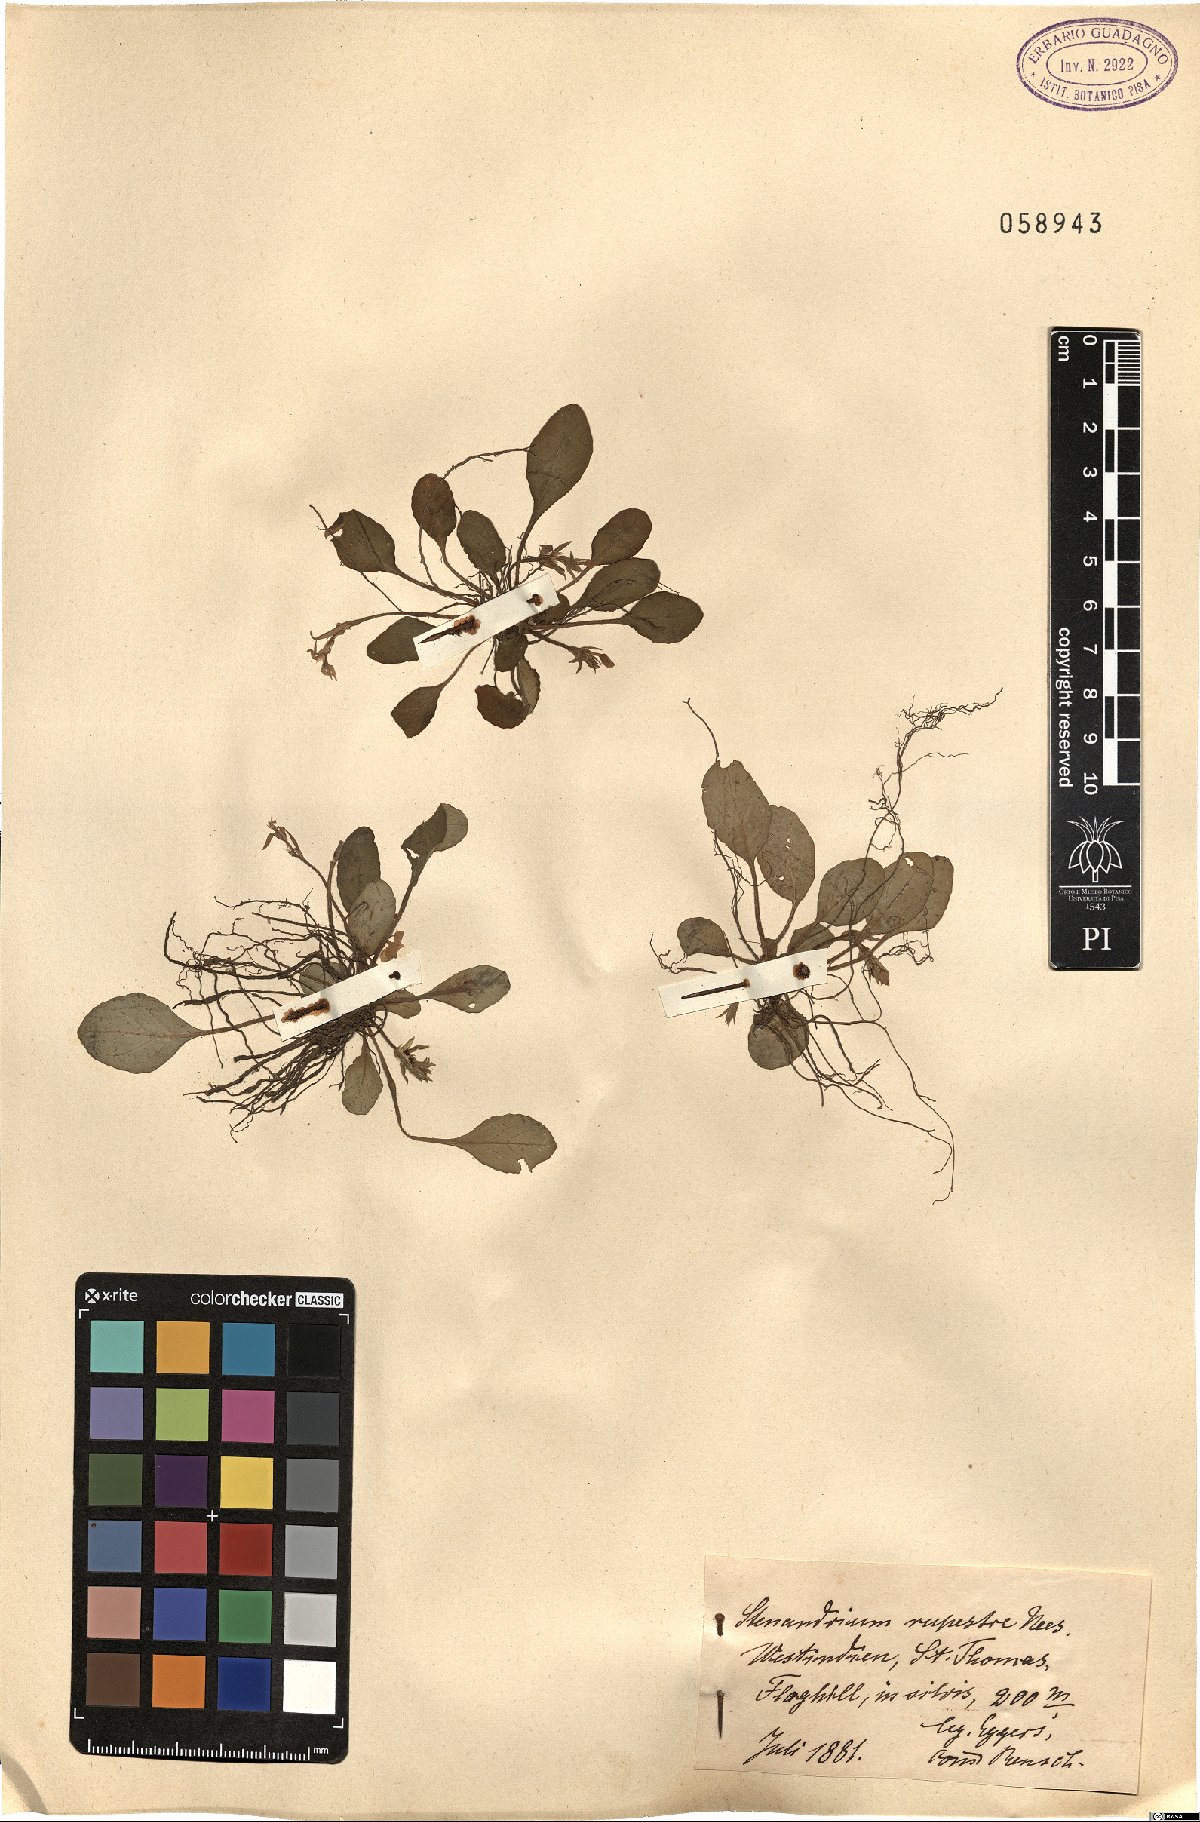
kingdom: Plantae
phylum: Tracheophyta
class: Magnoliopsida
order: Lamiales
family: Acanthaceae
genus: Stenandrium
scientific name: Stenandrium tuberosum
